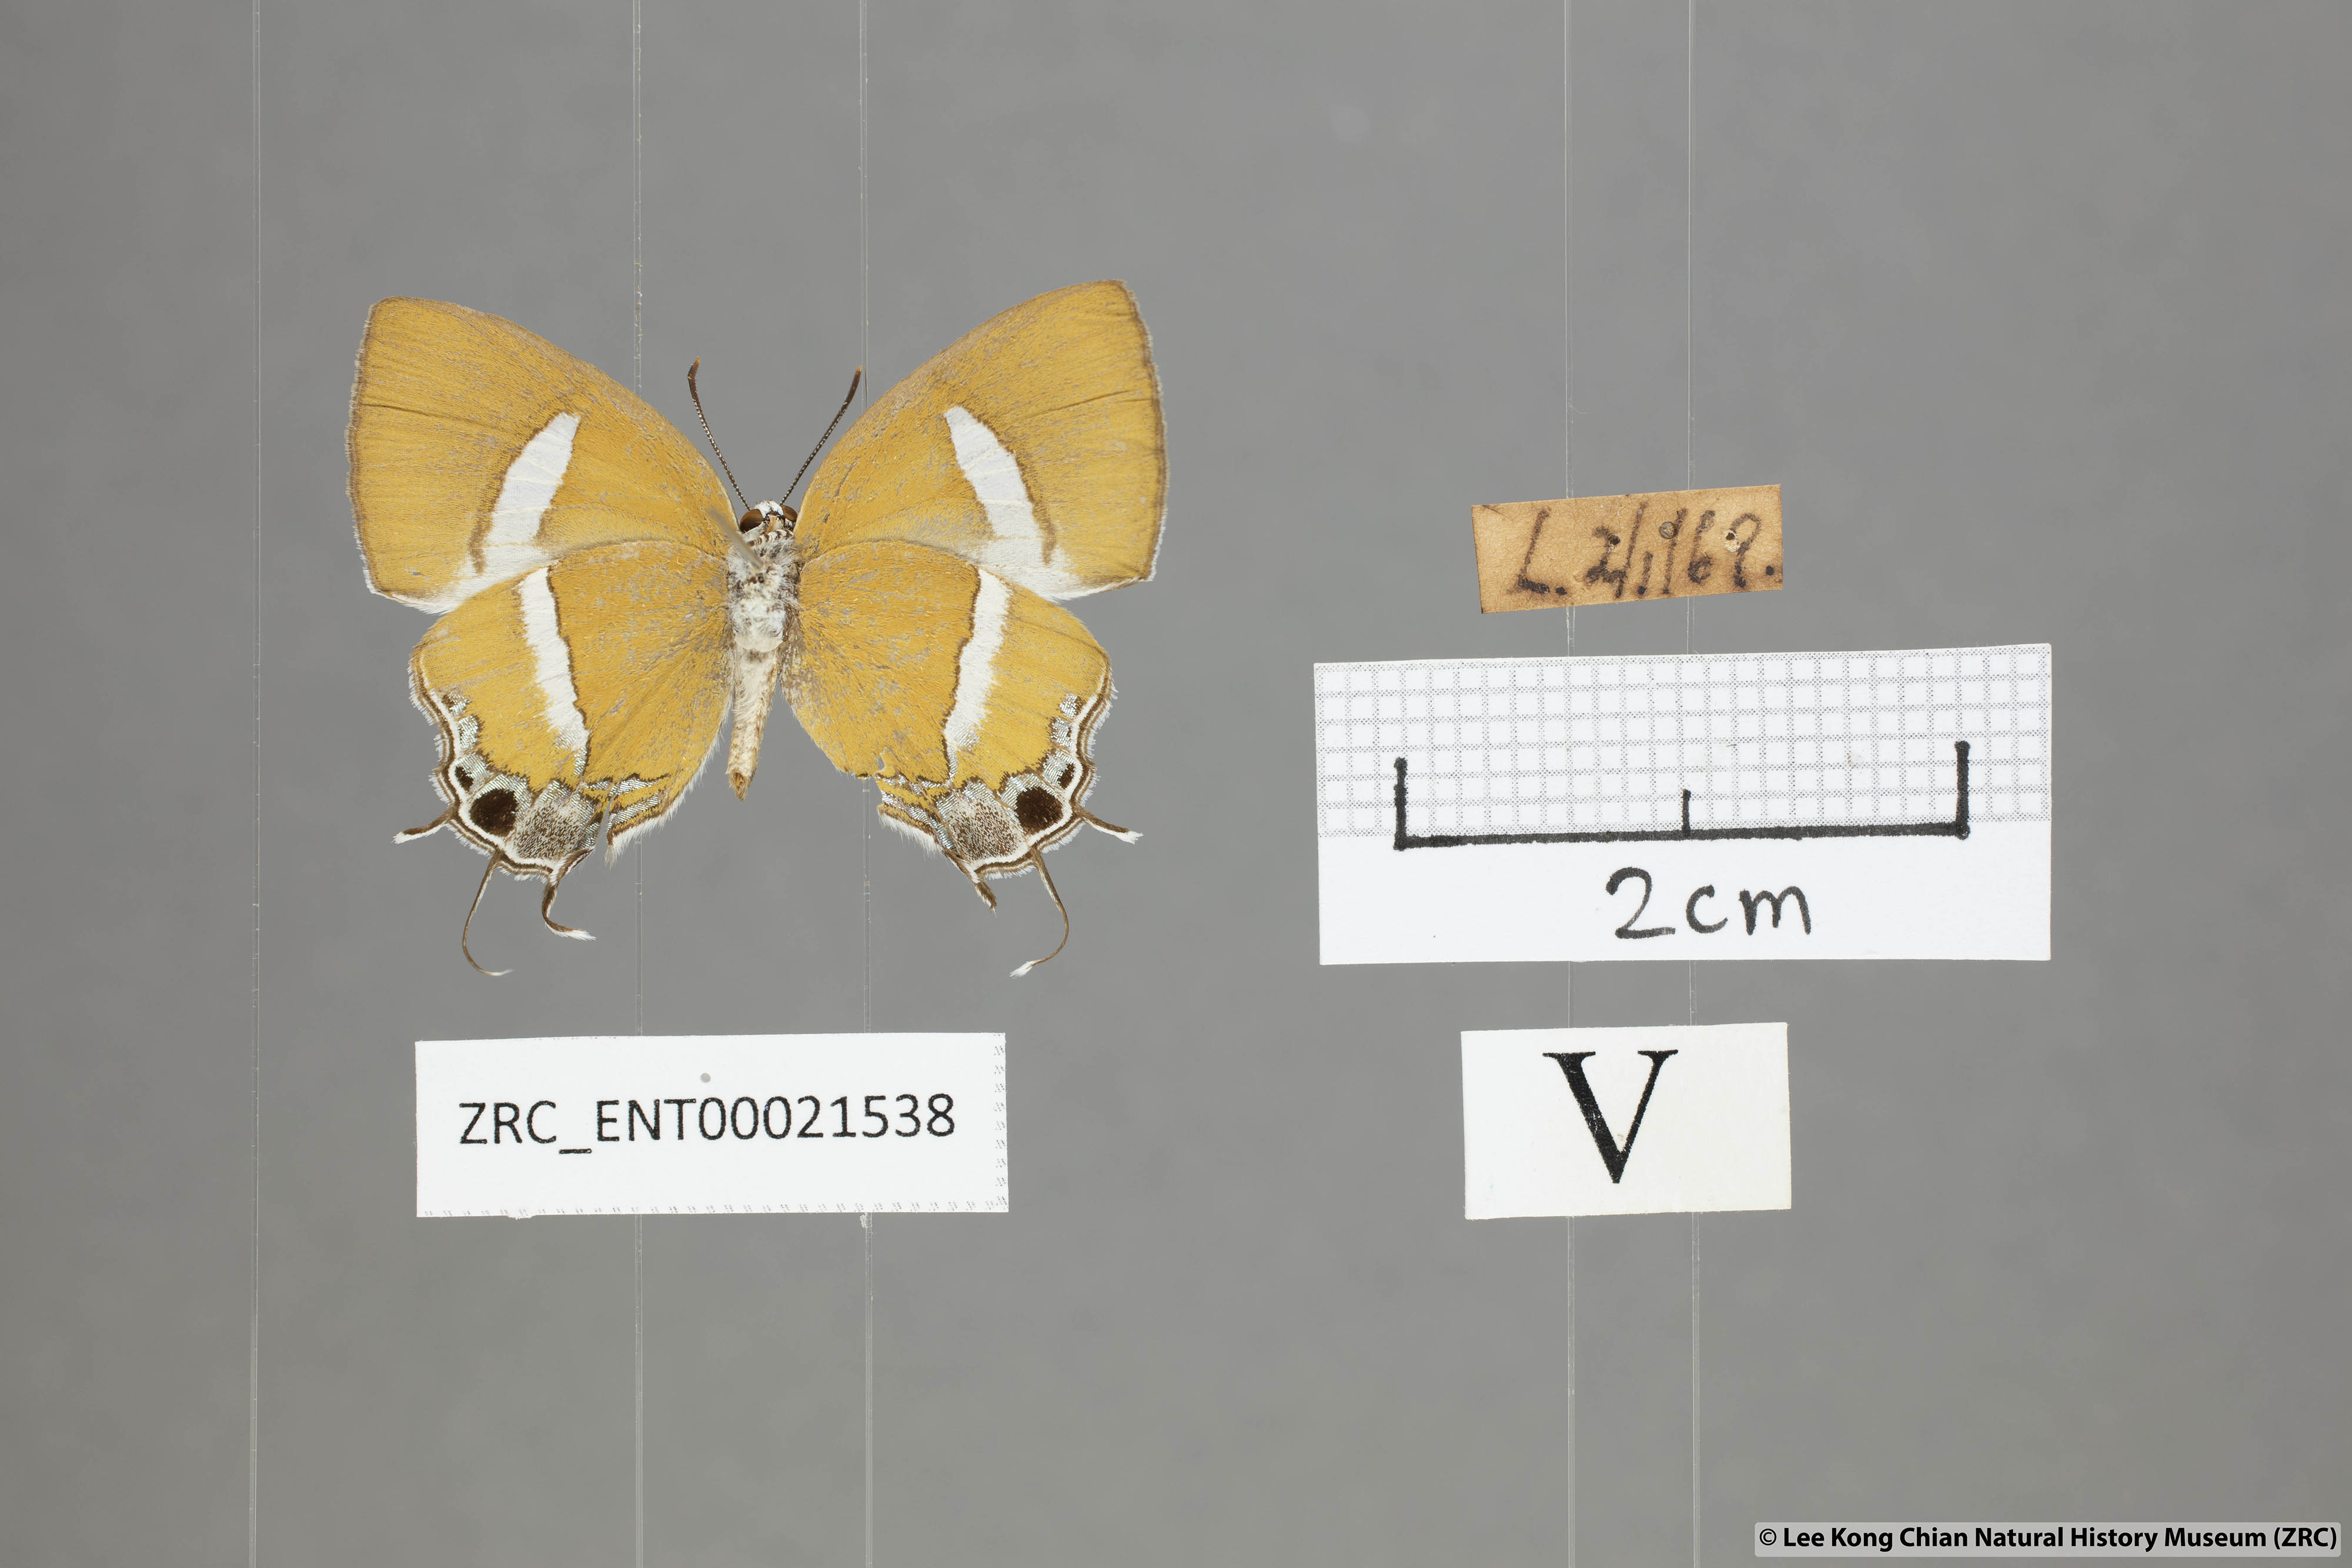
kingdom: Animalia
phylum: Arthropoda
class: Insecta
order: Lepidoptera
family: Lycaenidae
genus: Horaga
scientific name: Horaga syrinx
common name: Ambon onyx
